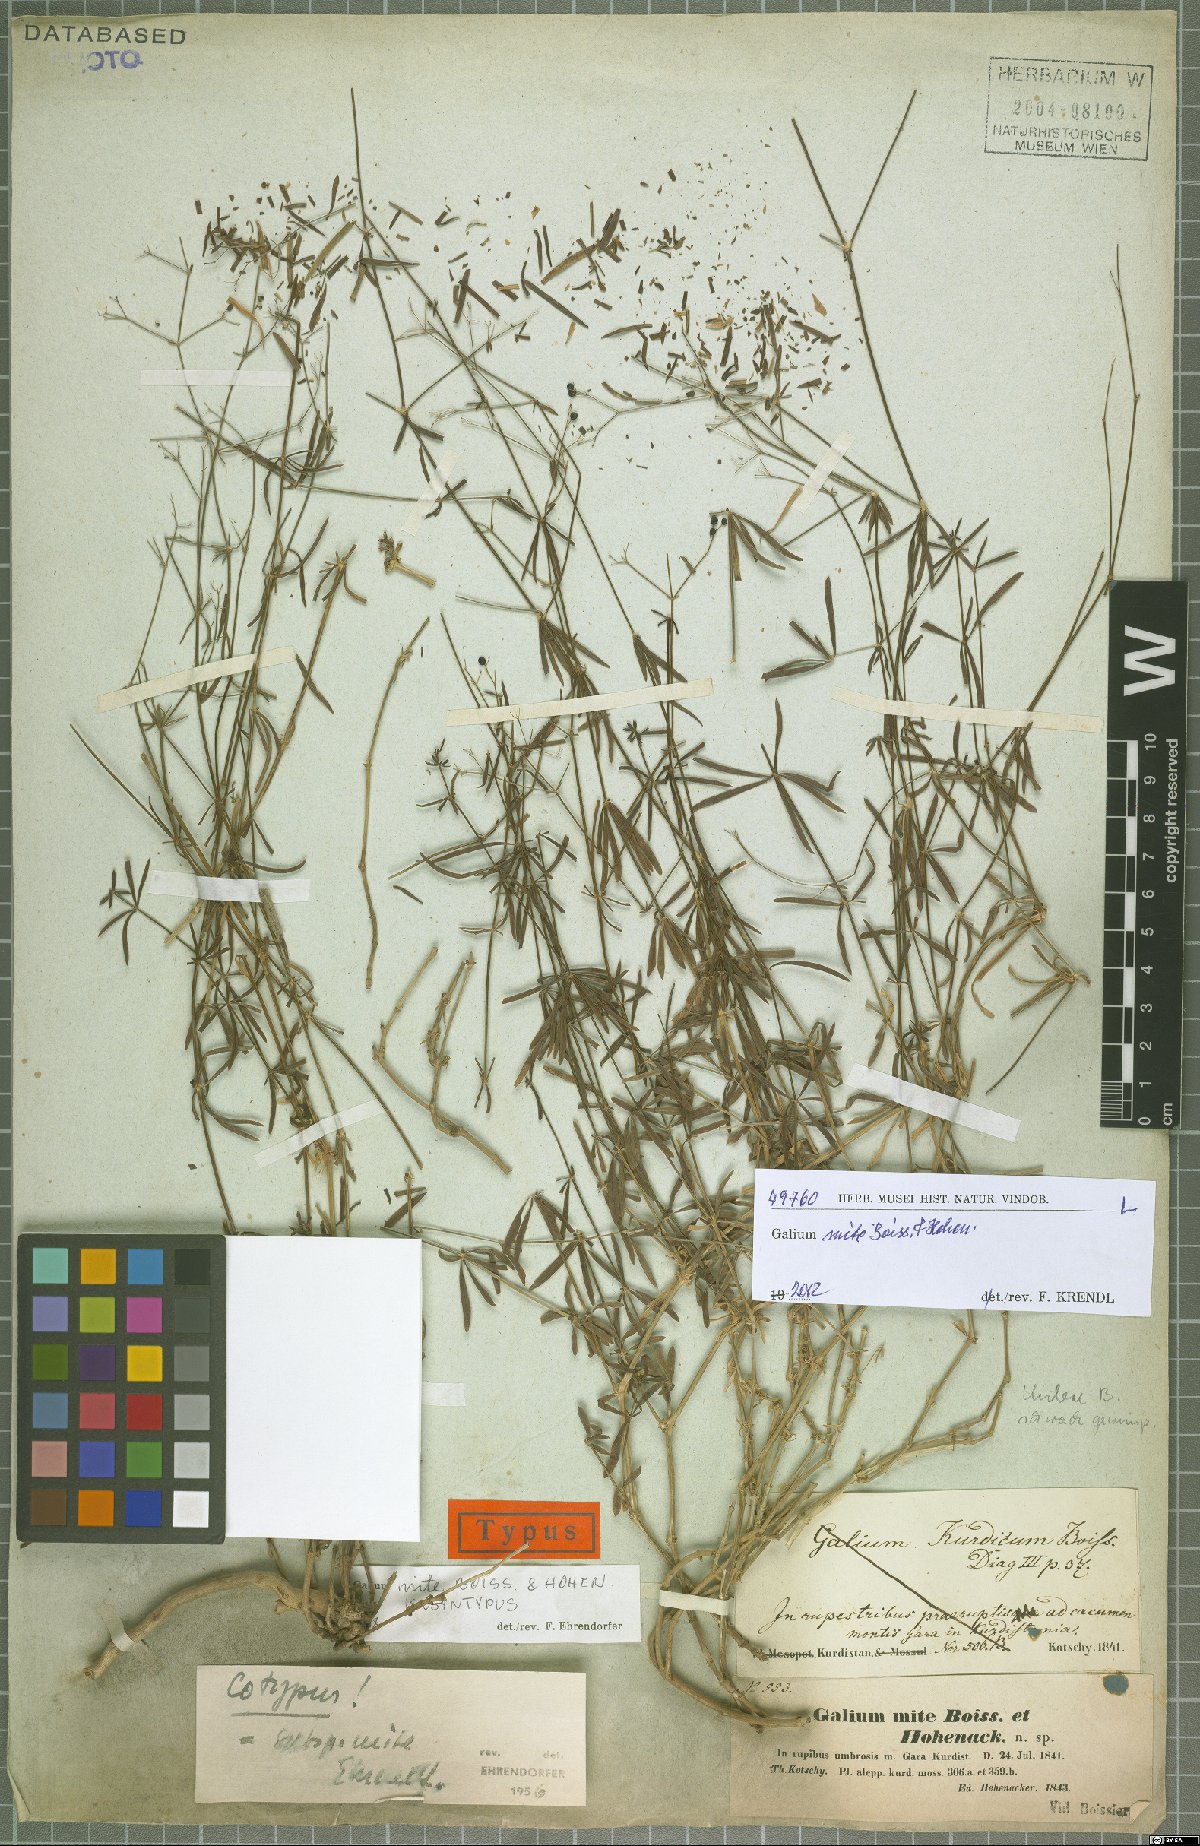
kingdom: Plantae
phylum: Tracheophyta
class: Magnoliopsida
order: Gentianales
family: Rubiaceae
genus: Galium
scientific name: Galium mite
